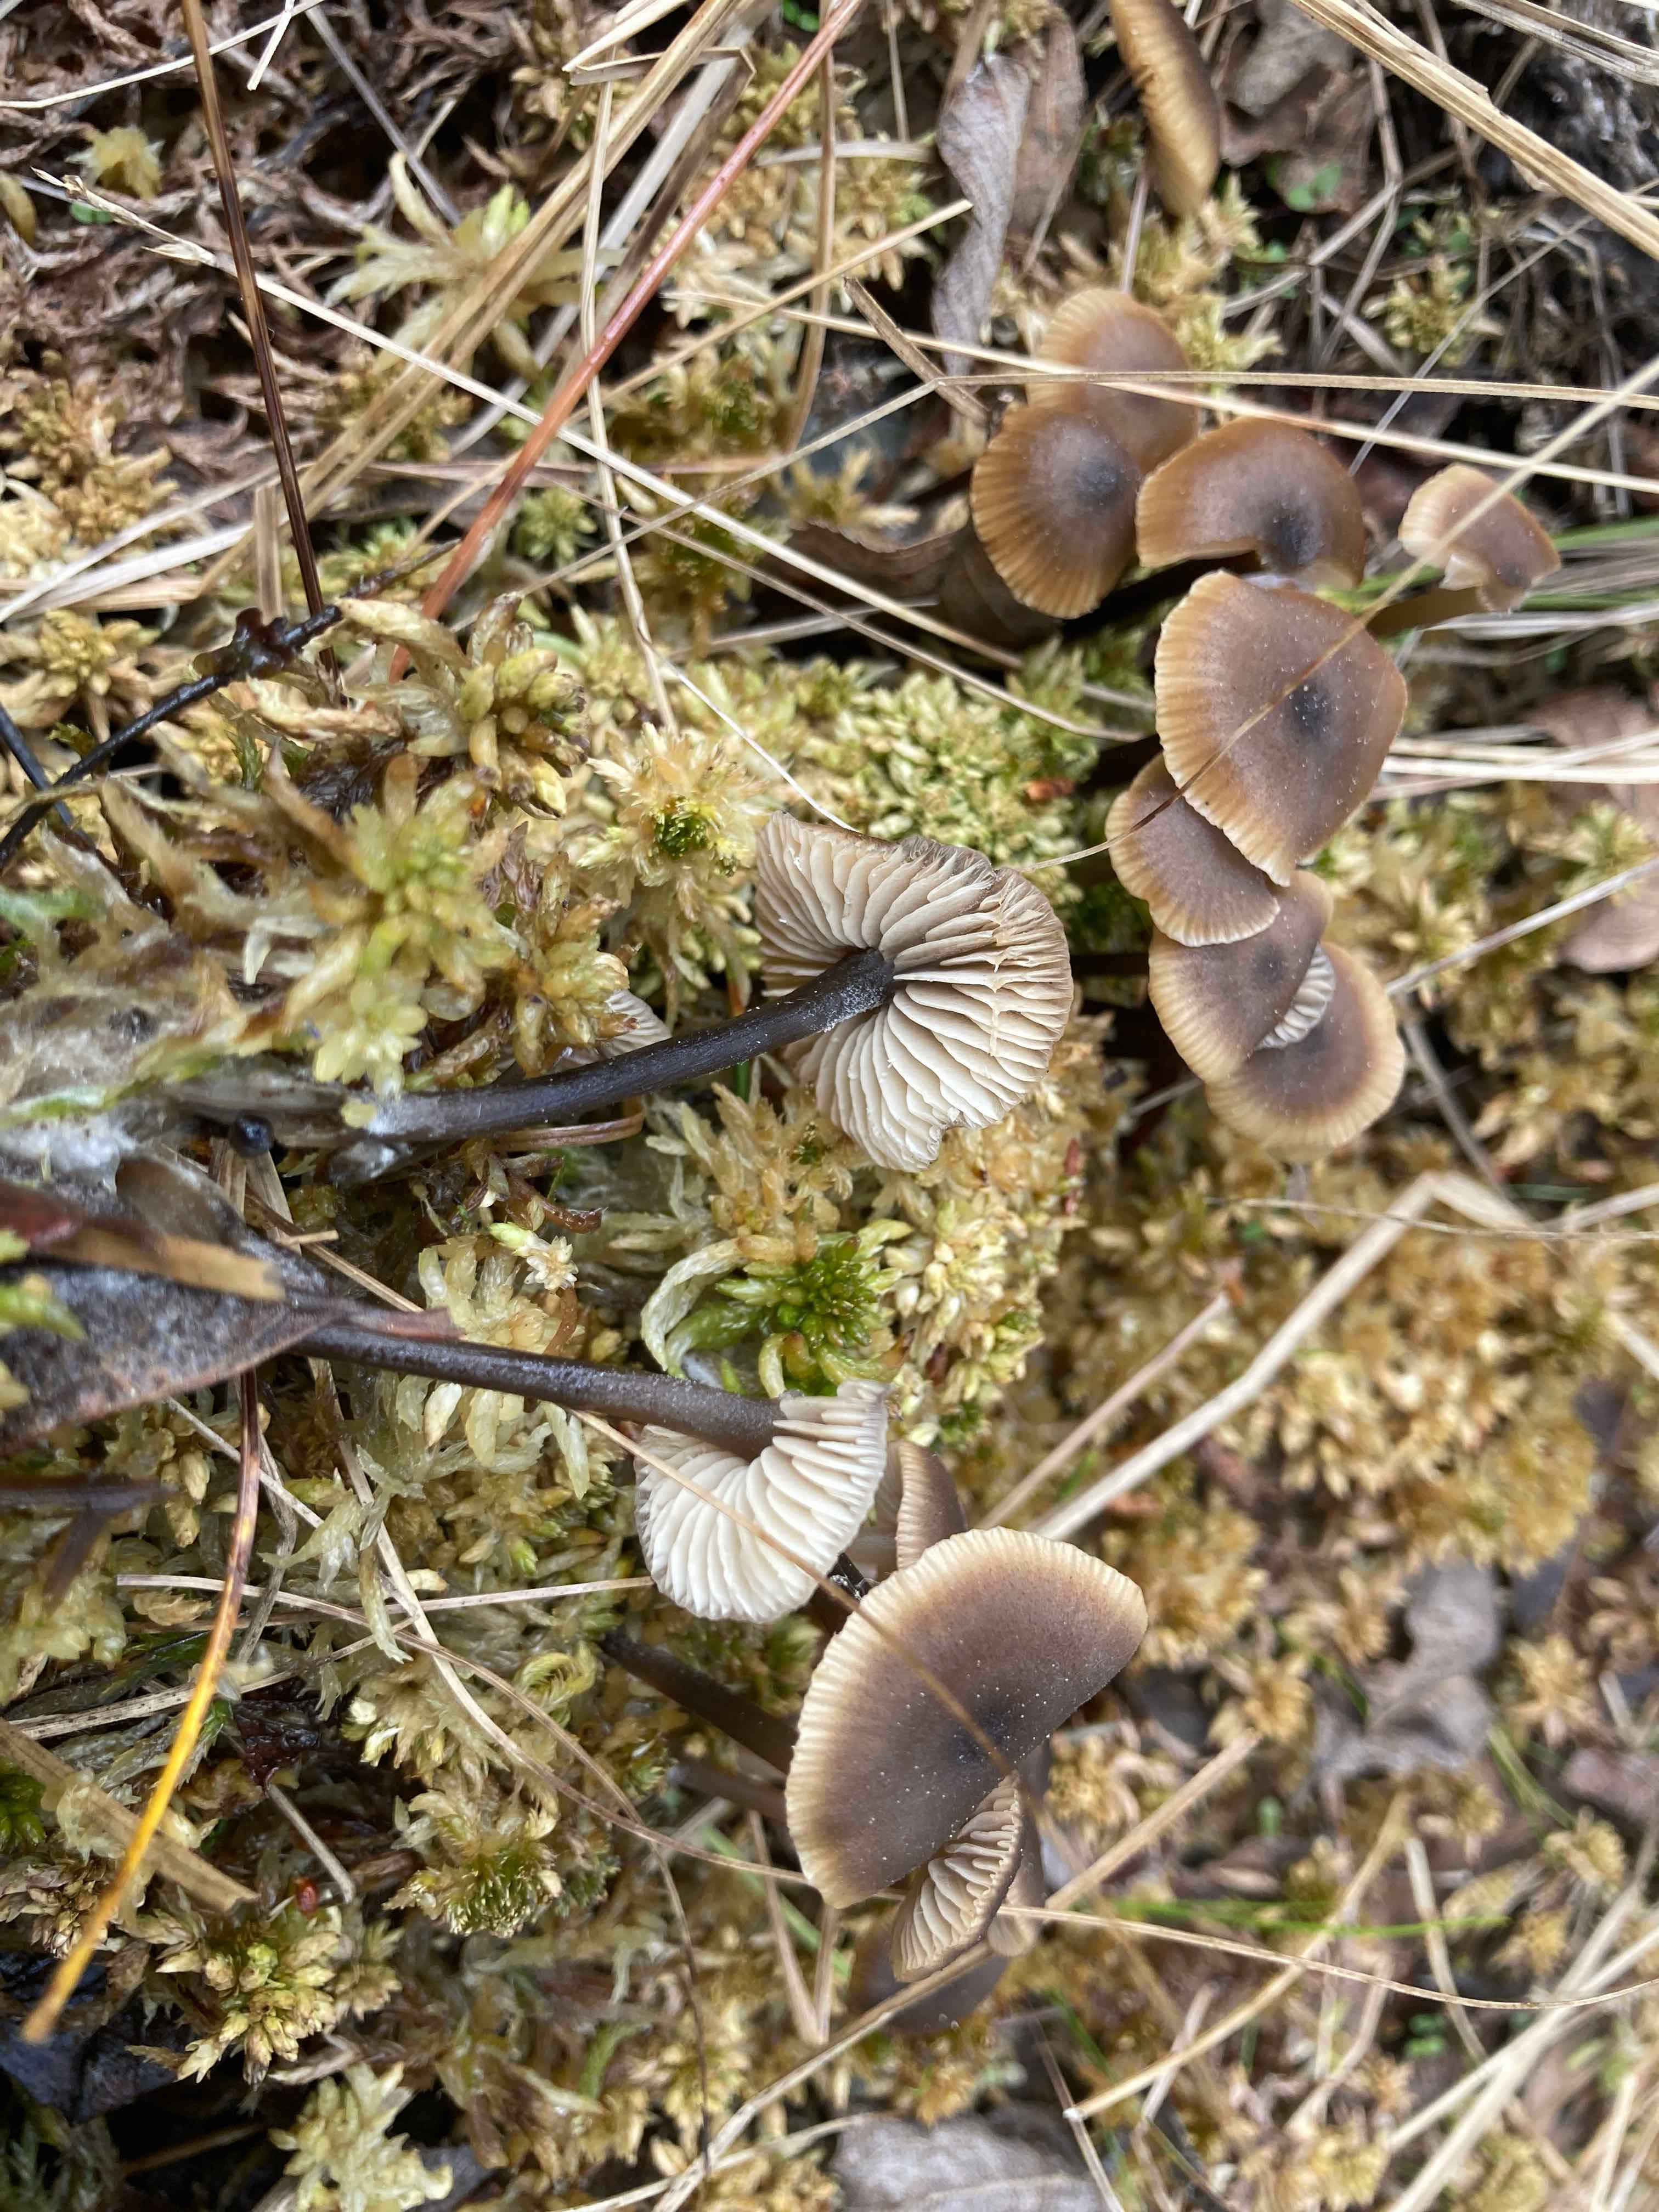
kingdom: Fungi
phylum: Basidiomycota
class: Agaricomycetes
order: Agaricales
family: Lyophyllaceae
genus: Sphagnurus
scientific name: Sphagnurus paluster
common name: tørvemos-gråblad
